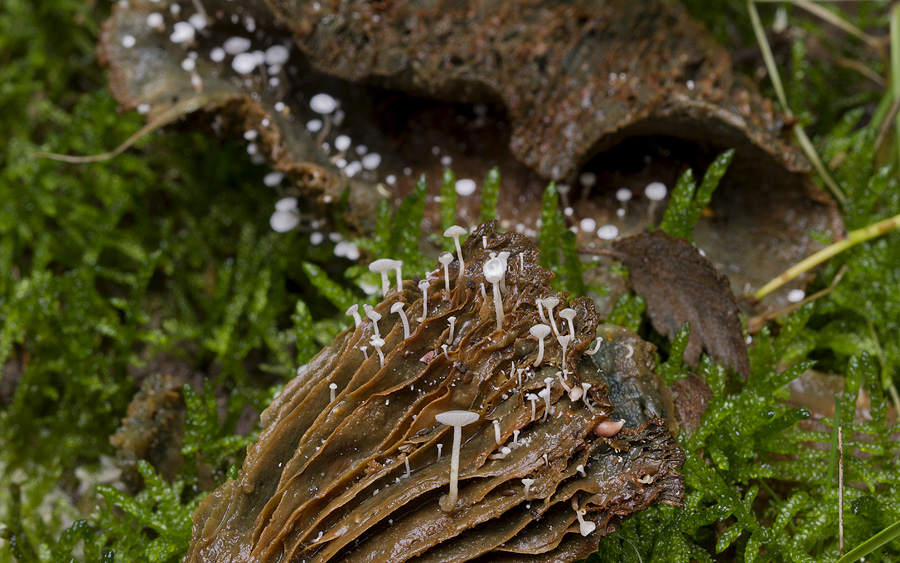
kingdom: Fungi
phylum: Basidiomycota
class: Agaricomycetes
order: Agaricales
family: Tricholomataceae
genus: Collybia
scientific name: Collybia tuberosa
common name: spidsknoldet lighat
